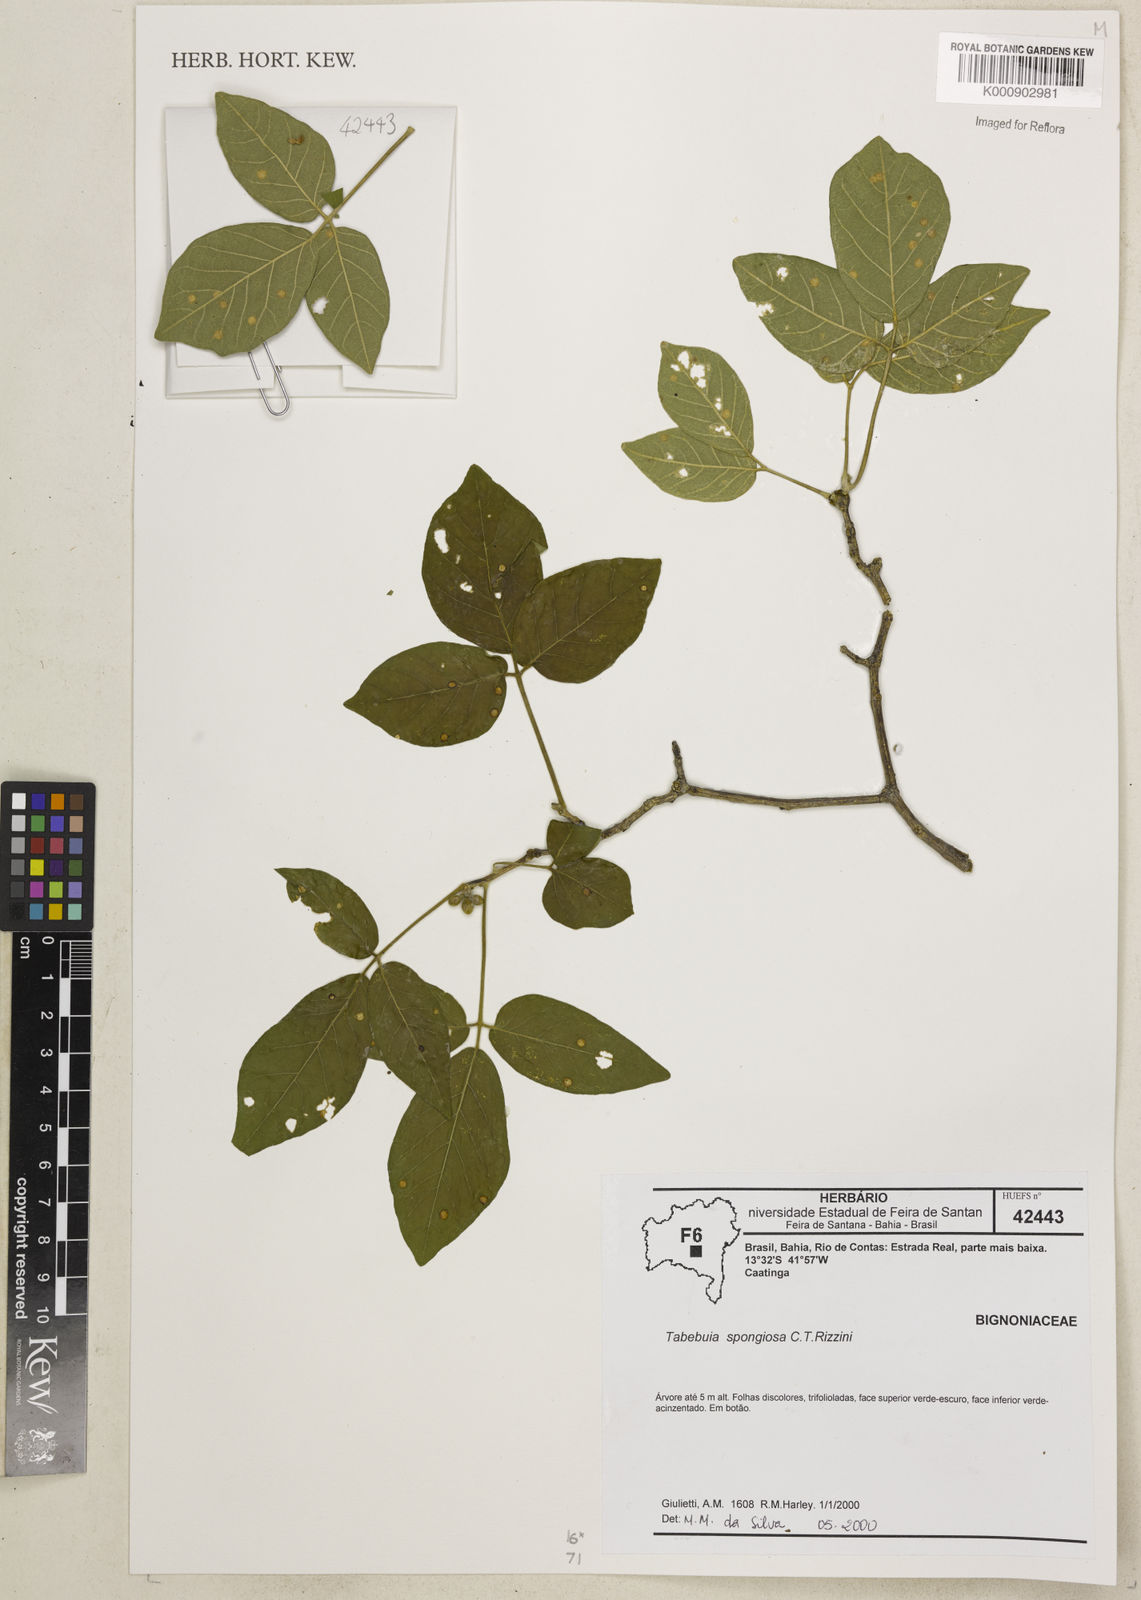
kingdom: Plantae
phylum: Tracheophyta
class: Magnoliopsida
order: Lamiales
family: Bignoniaceae
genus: Handroanthus
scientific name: Handroanthus spongiosus
